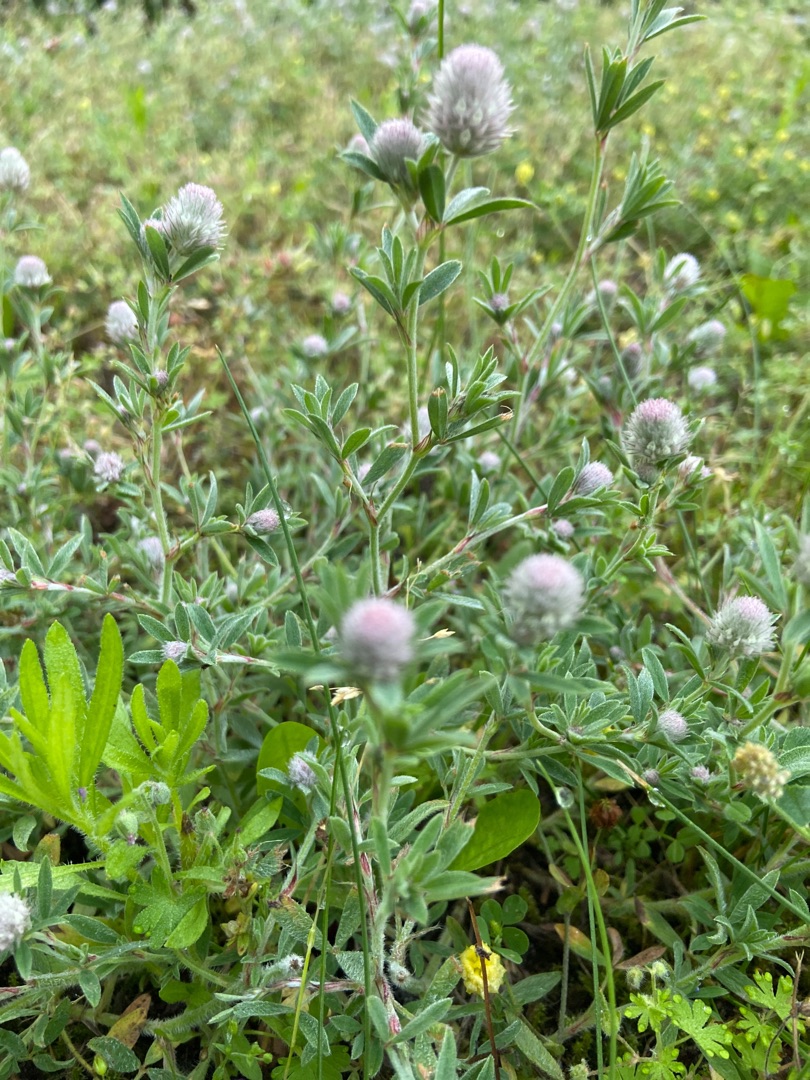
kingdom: Plantae
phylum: Tracheophyta
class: Magnoliopsida
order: Fabales
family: Fabaceae
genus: Trifolium
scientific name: Trifolium arvense
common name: Hare-kløver
